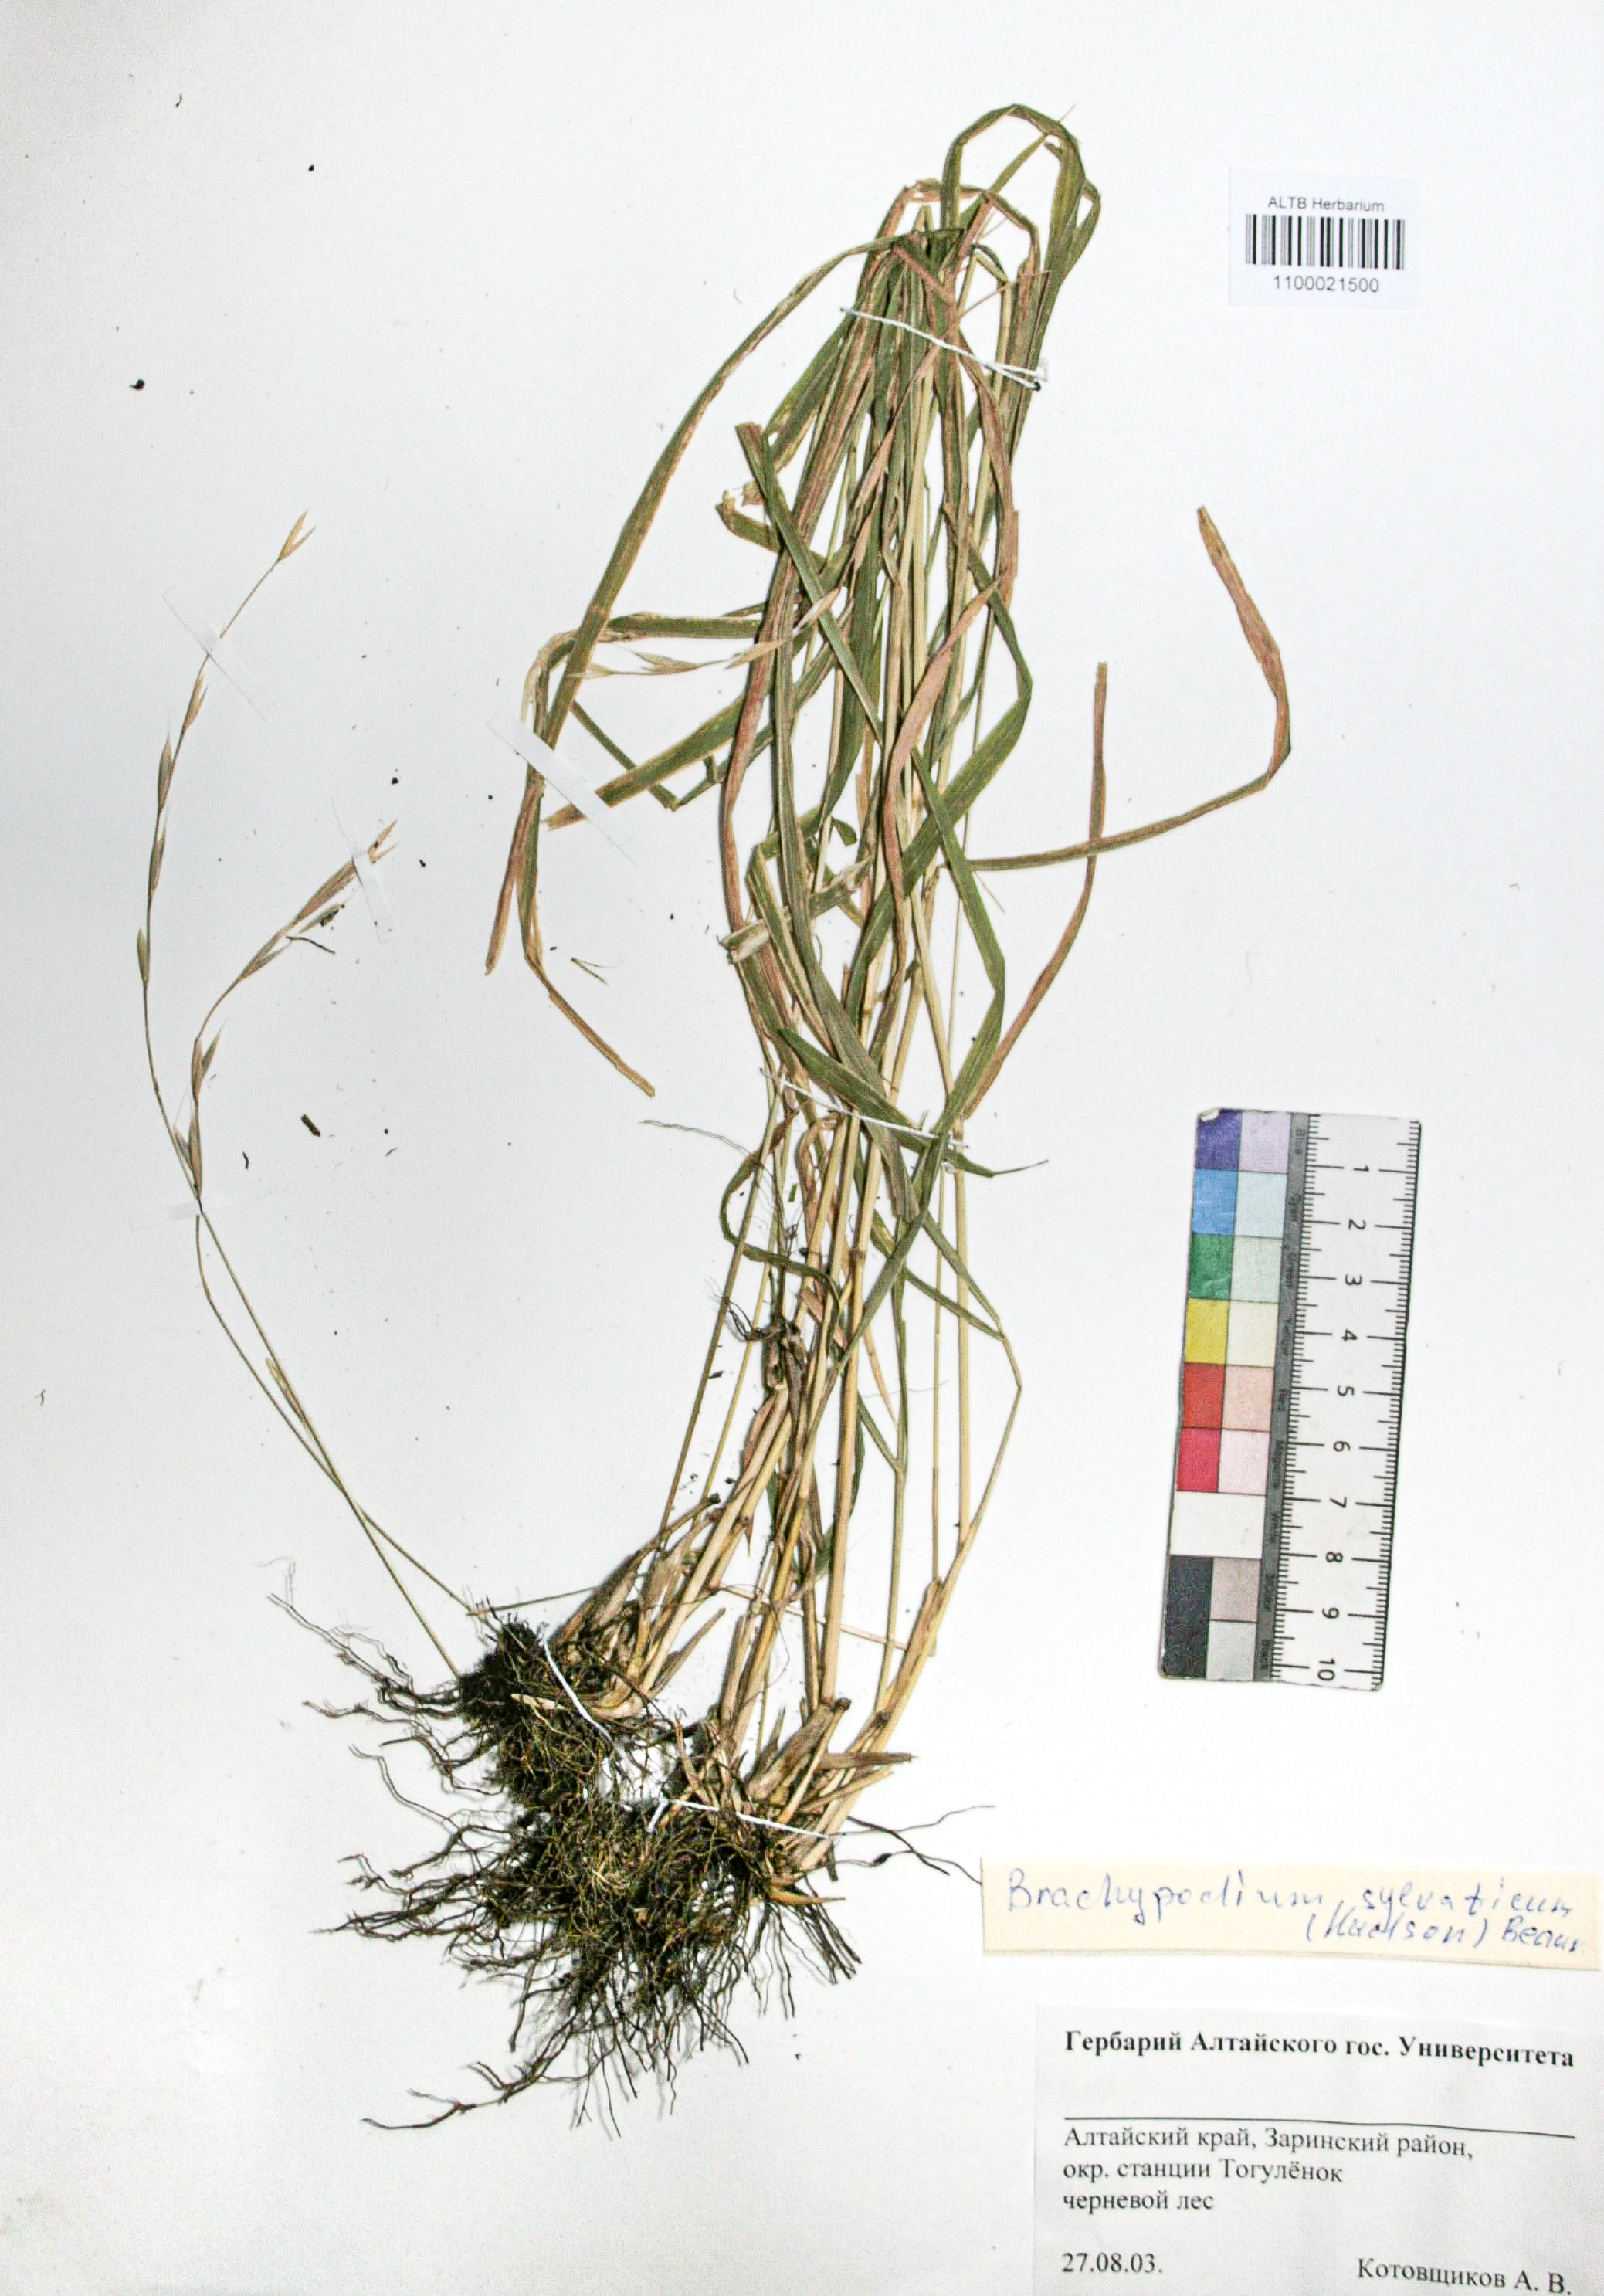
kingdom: Plantae
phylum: Tracheophyta
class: Liliopsida
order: Poales
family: Poaceae
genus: Brachypodium
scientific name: Brachypodium sylvaticum
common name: False-brome
